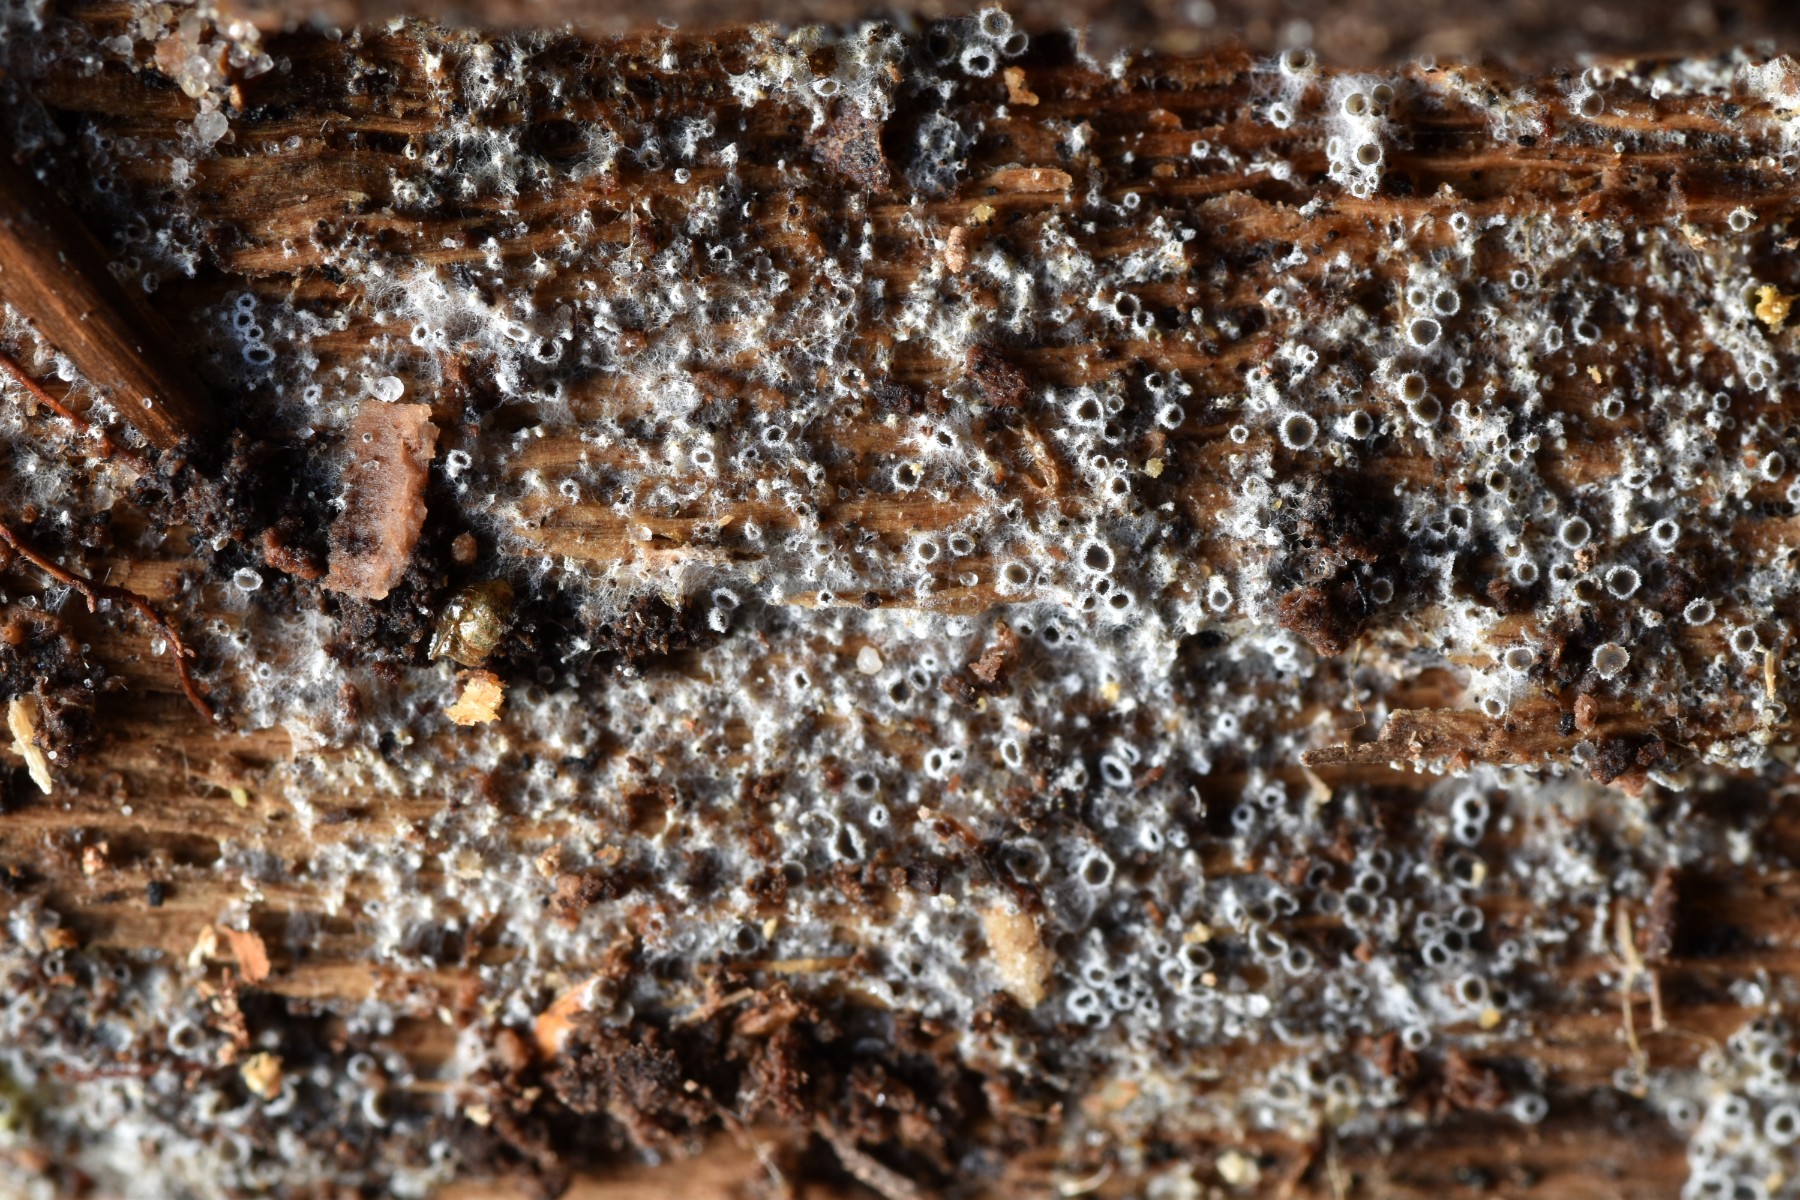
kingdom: Fungi
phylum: Ascomycota
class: Leotiomycetes
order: Helotiales
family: Arachnopezizaceae
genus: Eriopezia
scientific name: Eriopezia caesia
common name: ege-spindskive
